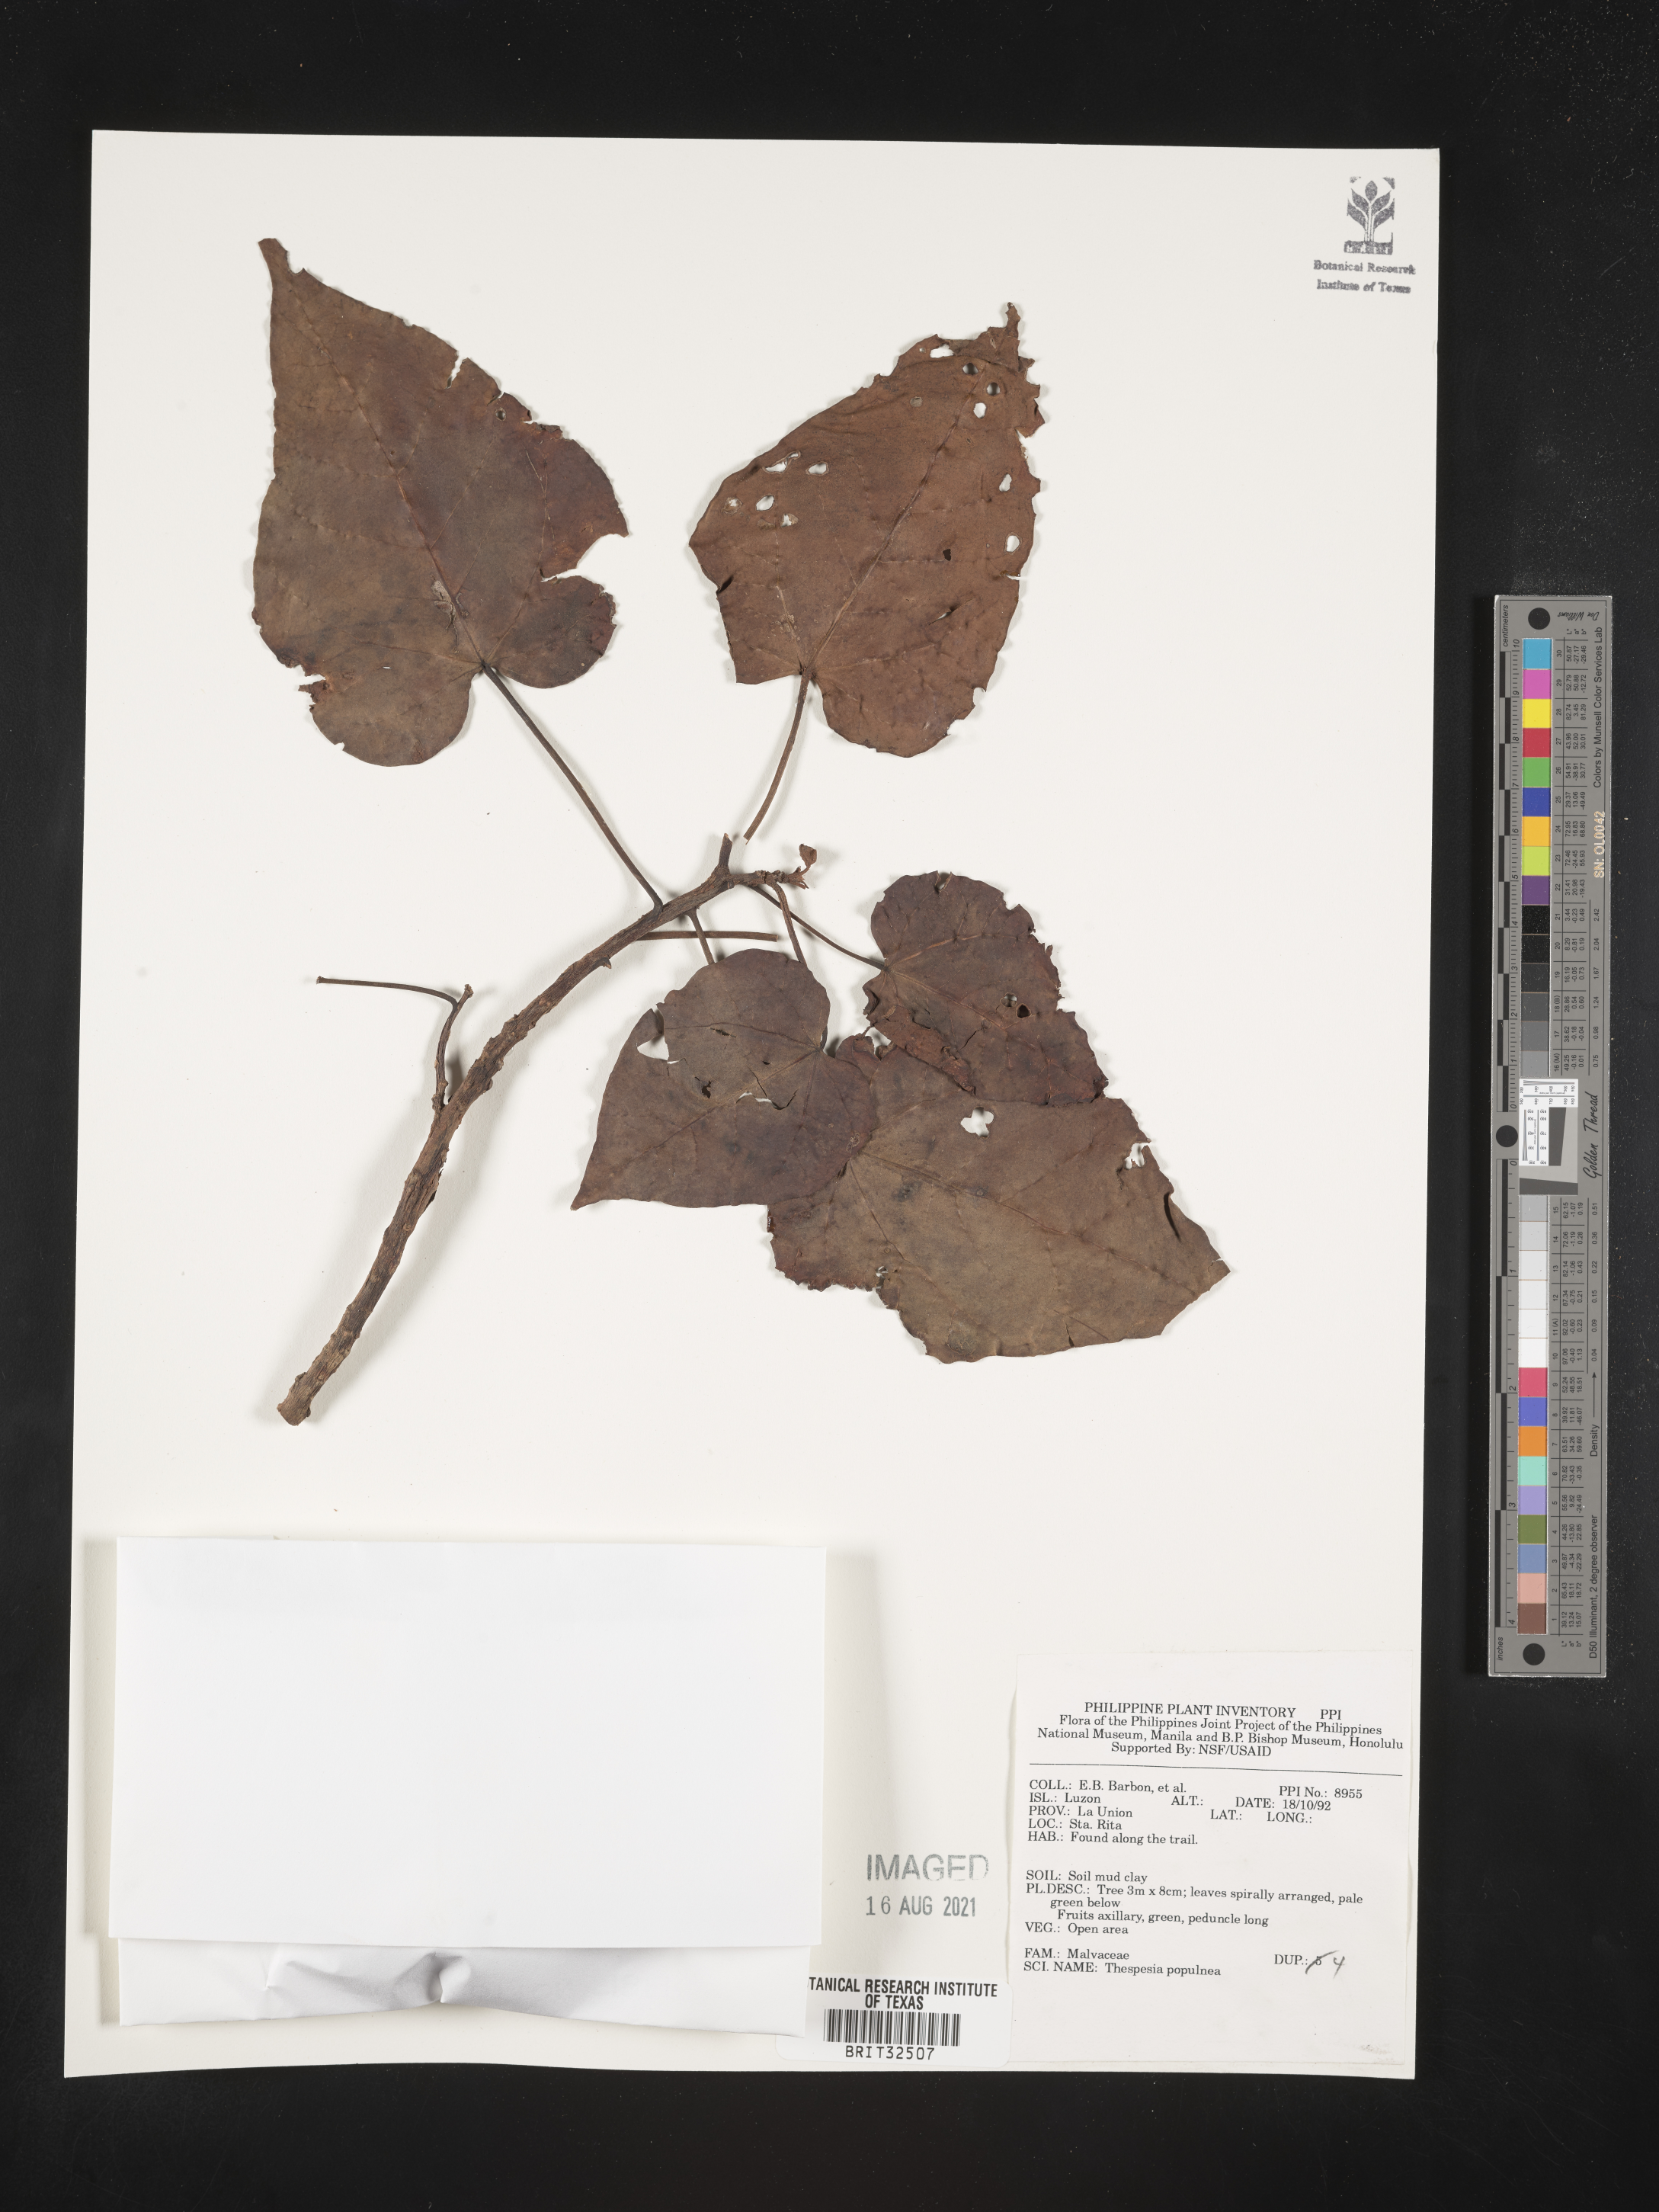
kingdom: Plantae
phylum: Tracheophyta
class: Magnoliopsida
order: Malvales
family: Malvaceae
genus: Thespesia
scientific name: Thespesia populnea
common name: Seaside mahoe
